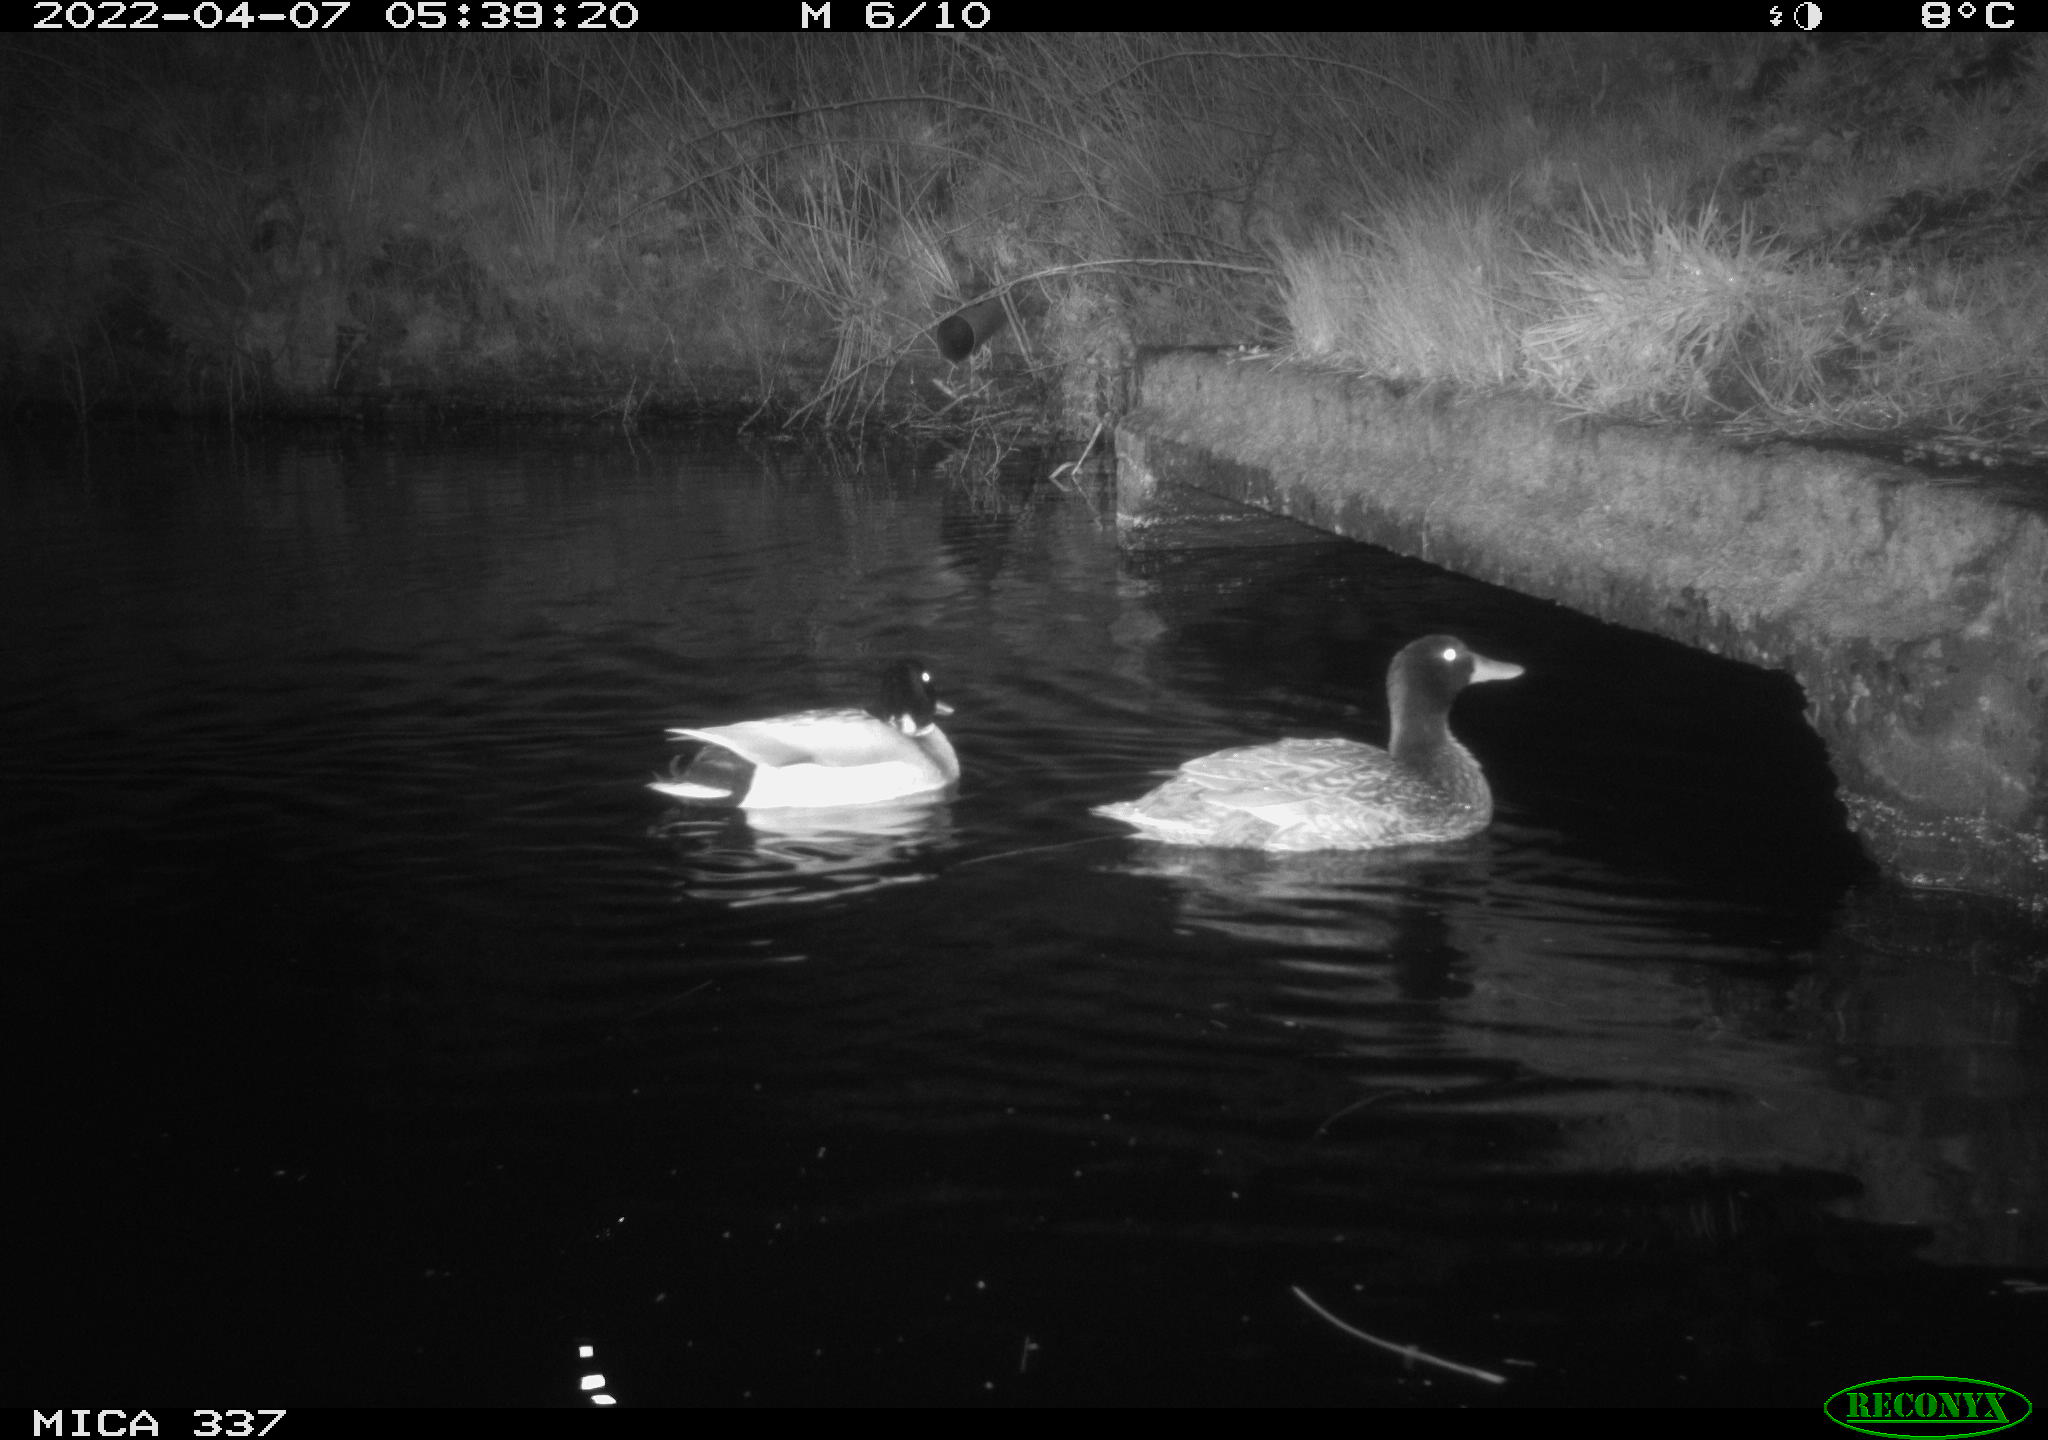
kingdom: Animalia
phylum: Chordata
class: Aves
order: Anseriformes
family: Anatidae
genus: Anas
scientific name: Anas platyrhynchos
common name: Mallard
